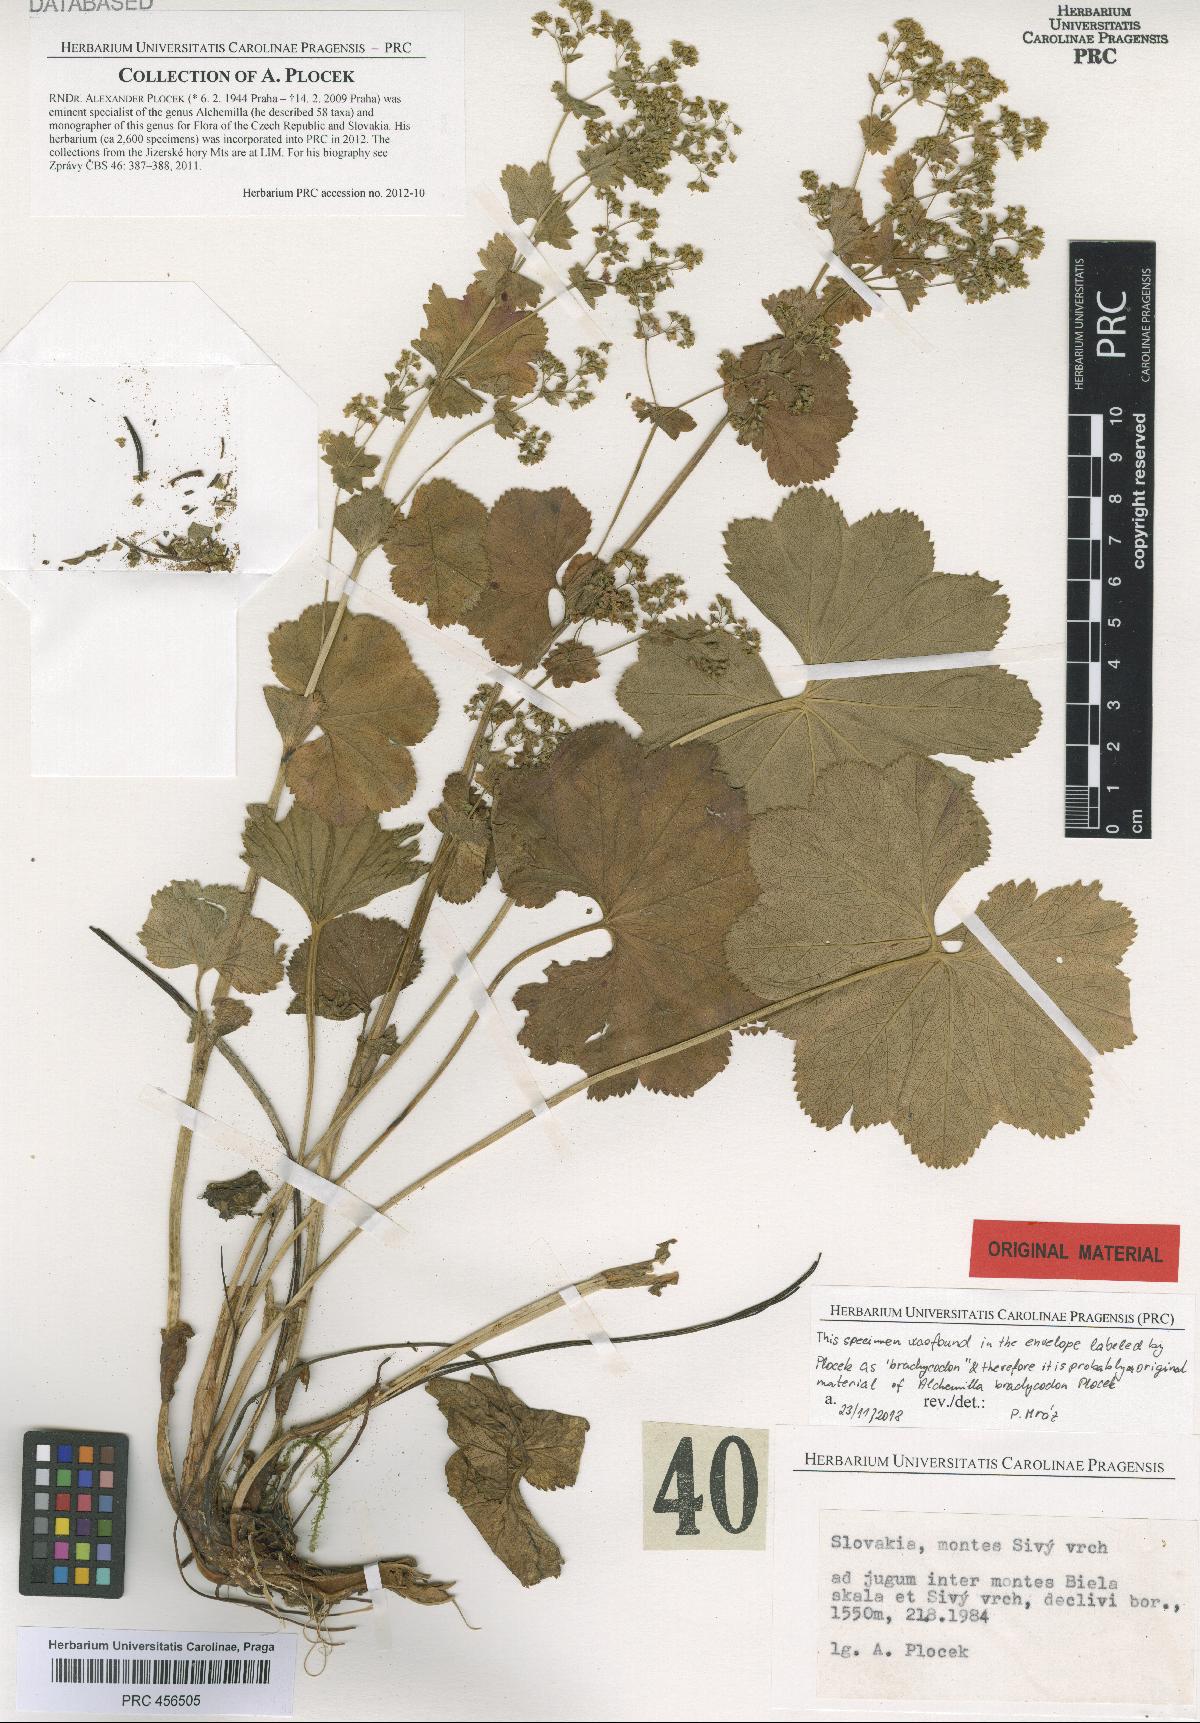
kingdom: Plantae
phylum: Tracheophyta
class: Magnoliopsida
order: Rosales
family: Rosaceae
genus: Alchemilla
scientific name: Alchemilla brachycodon
